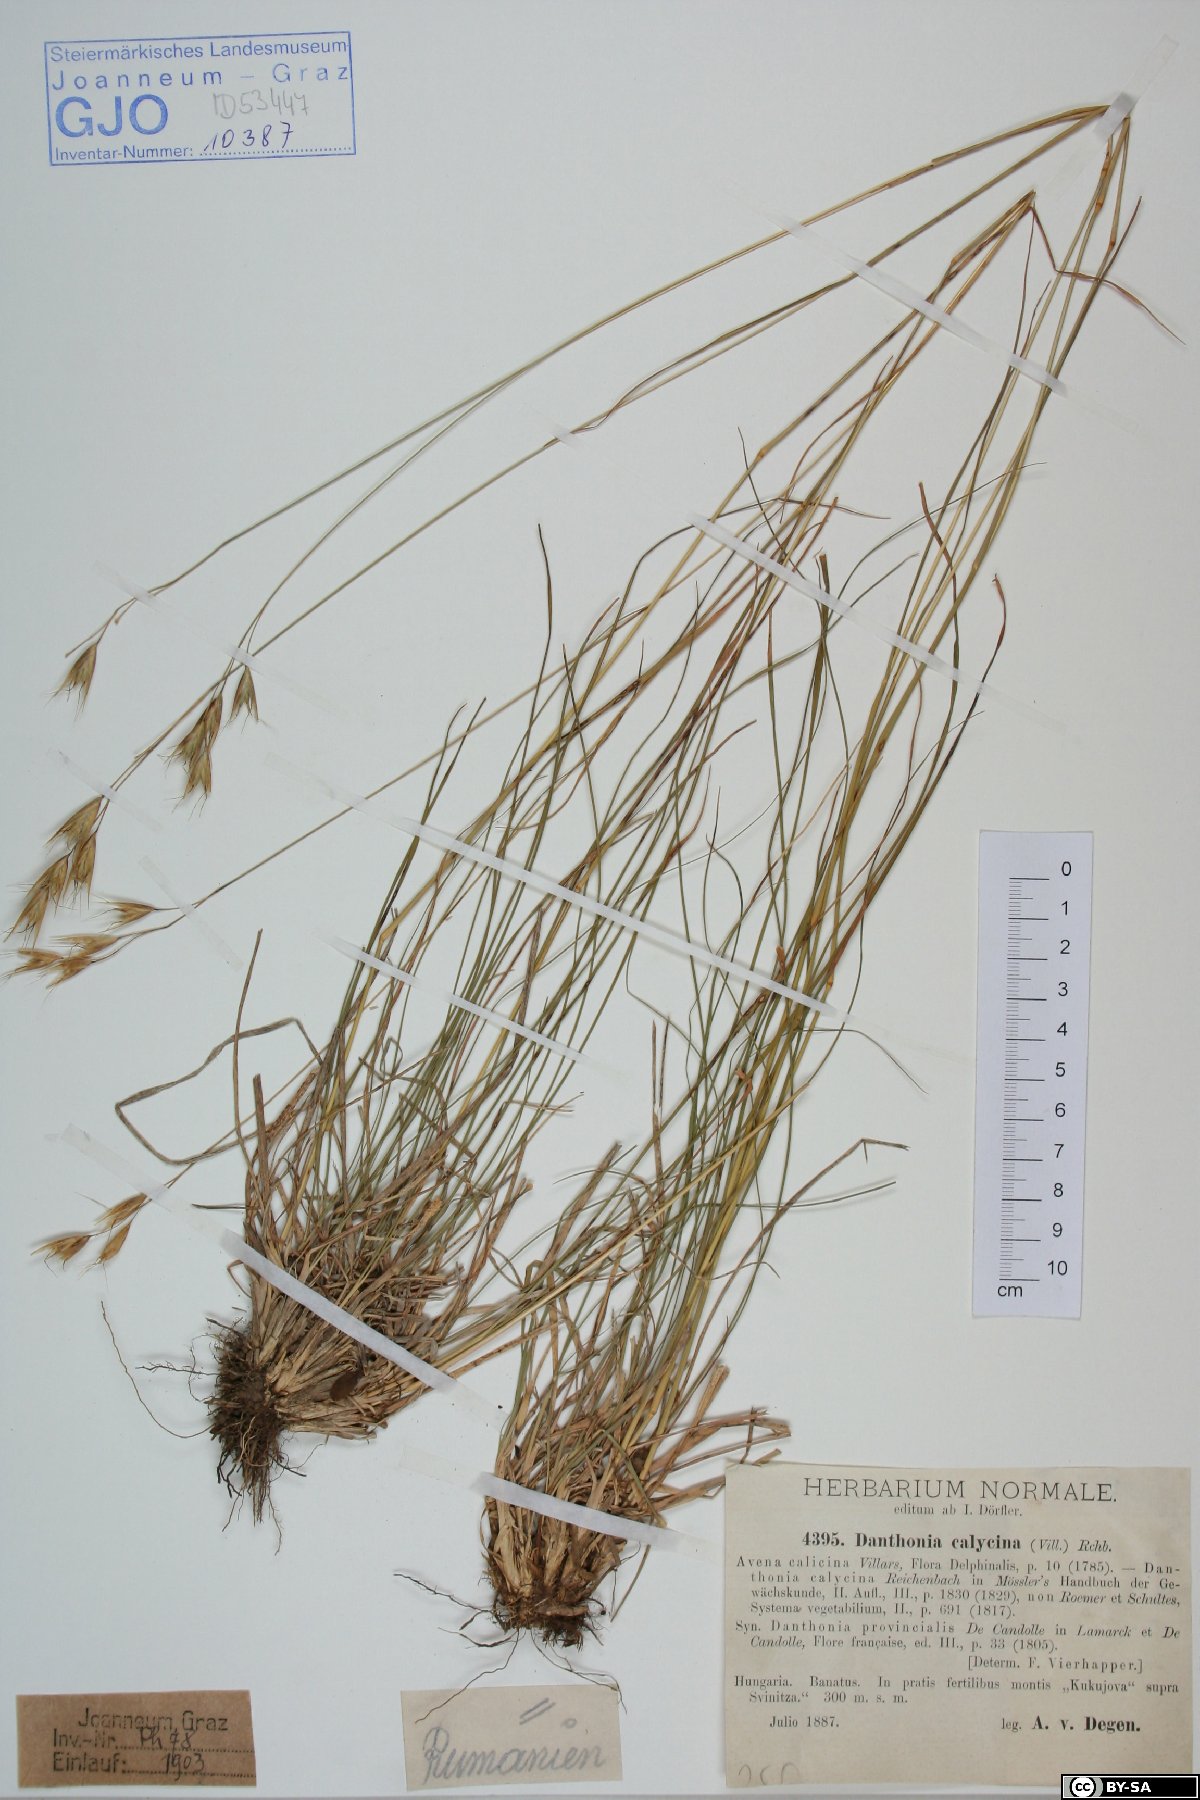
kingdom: Plantae
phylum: Tracheophyta
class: Liliopsida
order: Poales
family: Poaceae
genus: Danthonia
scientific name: Danthonia alpina
